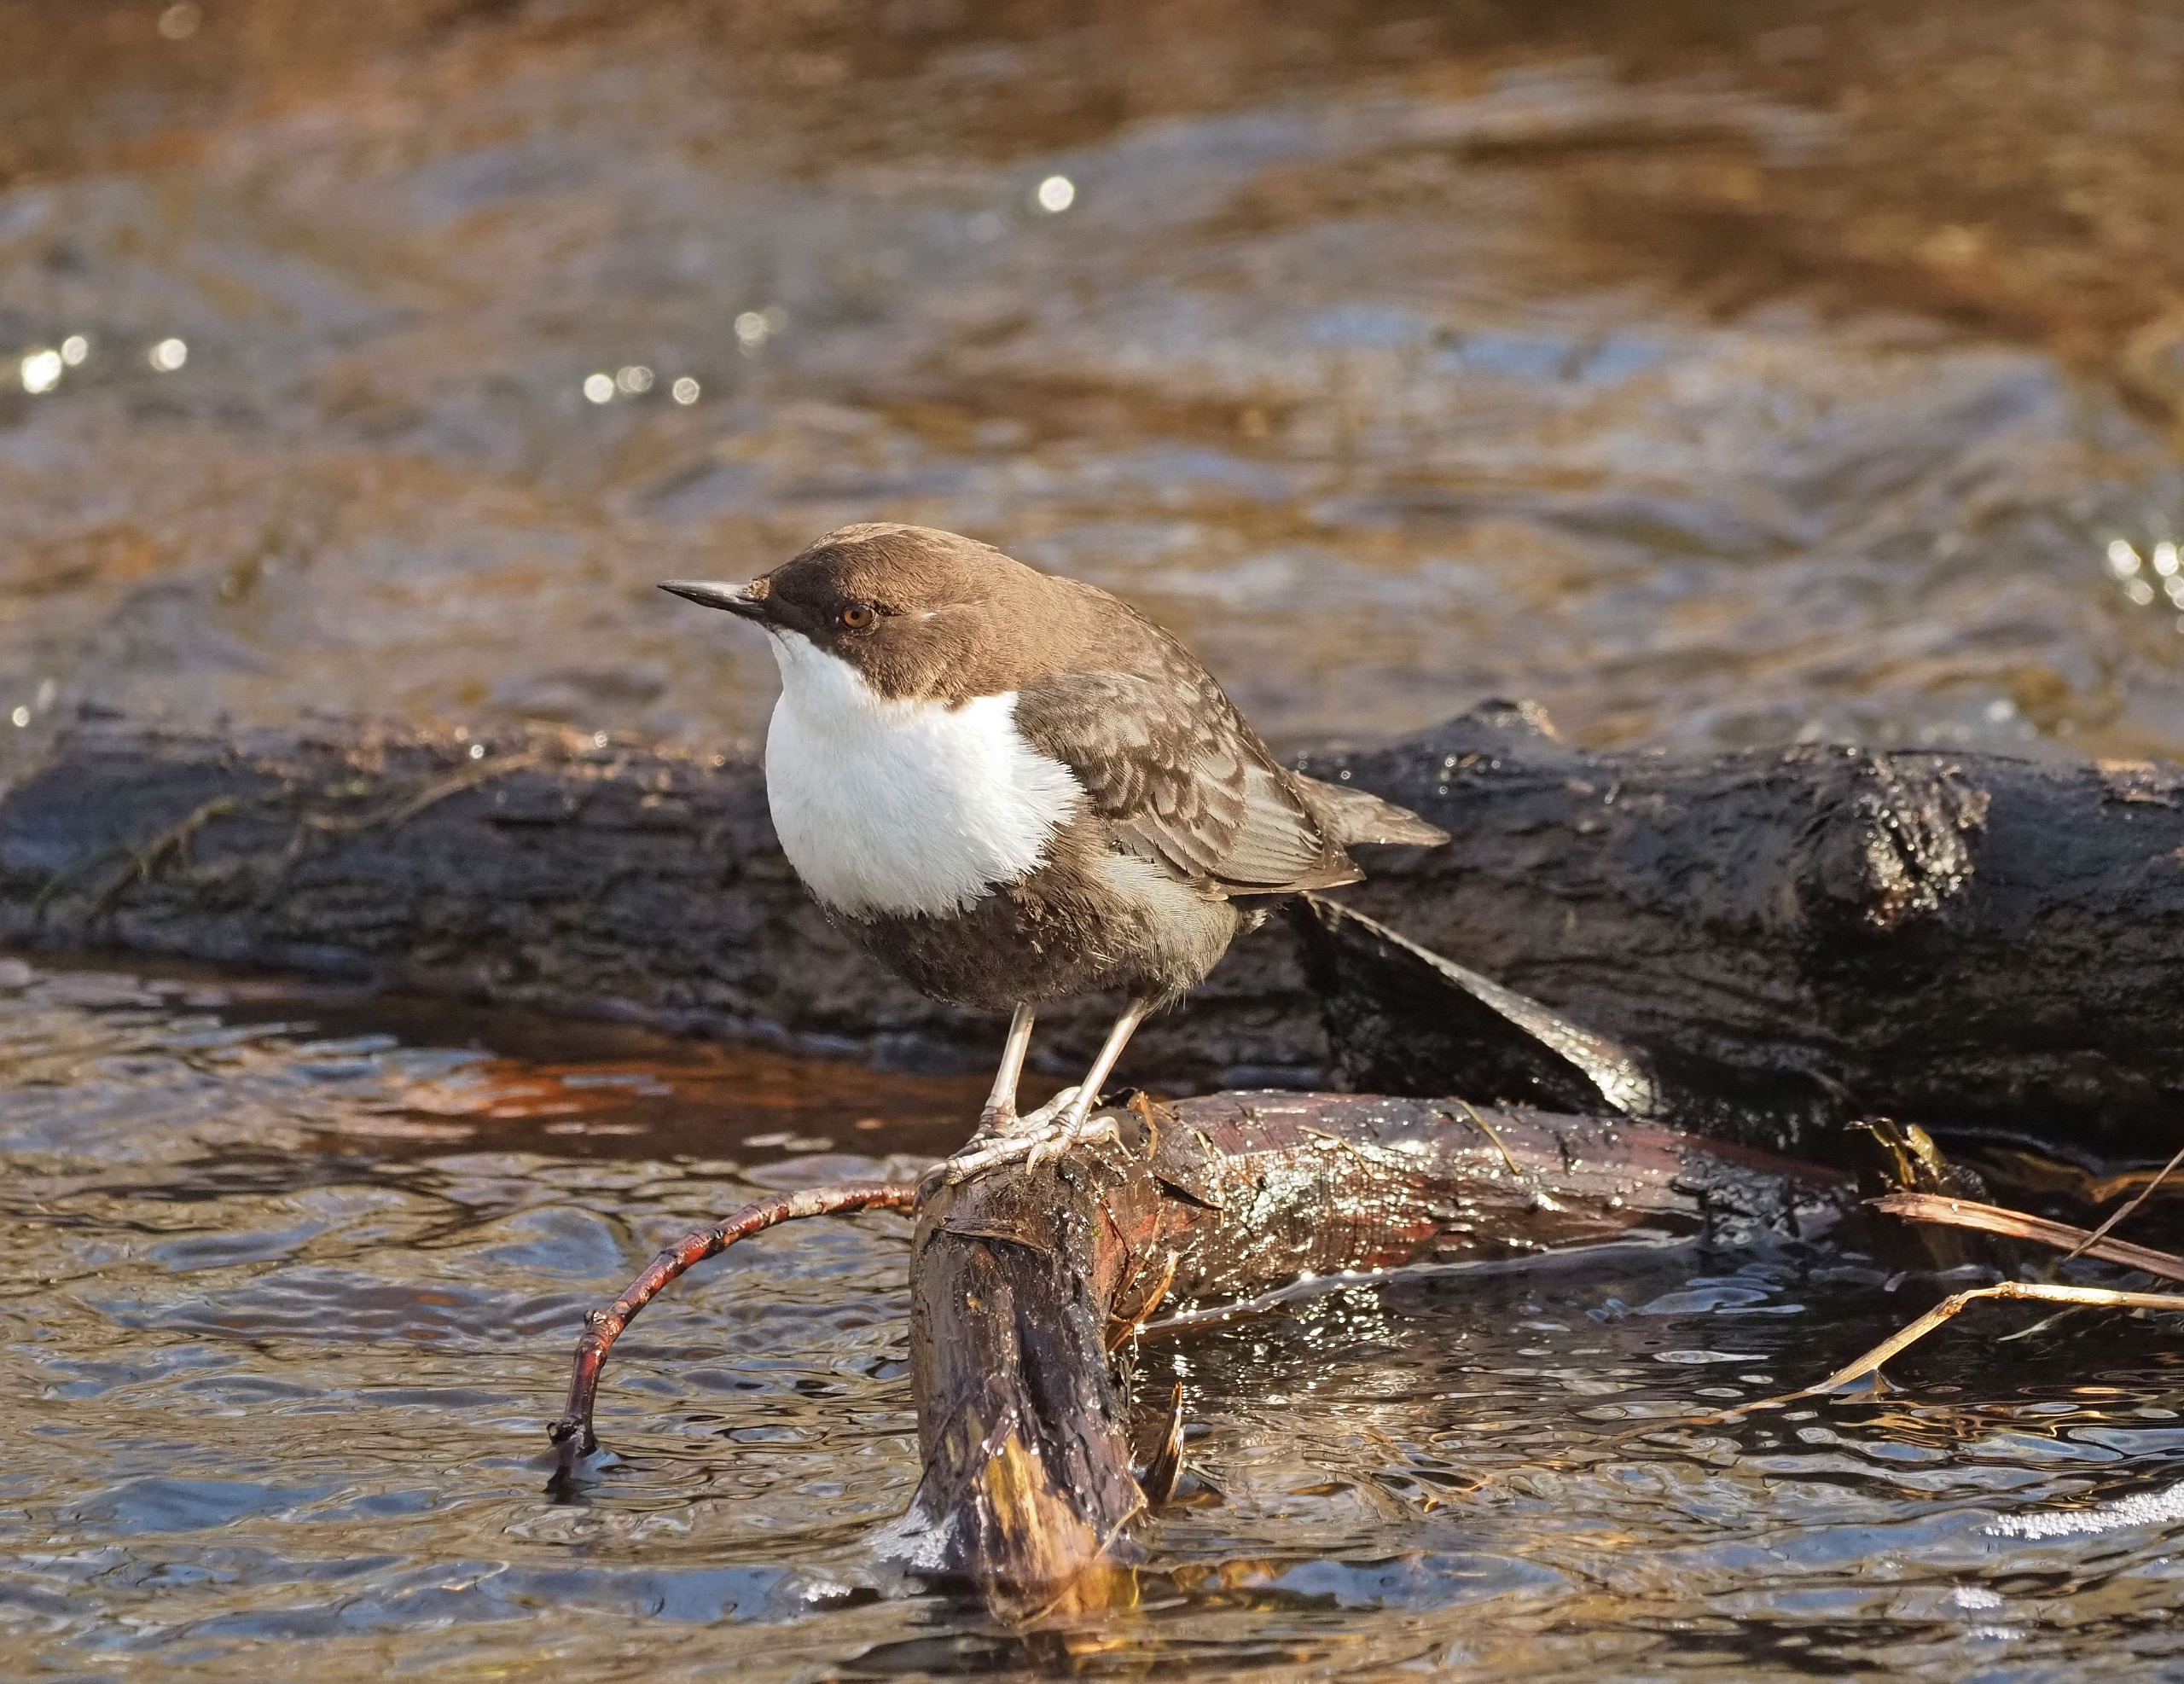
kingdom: Animalia
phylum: Chordata
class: Aves
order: Passeriformes
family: Cinclidae
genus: Cinclus
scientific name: Cinclus cinclus
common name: Vandstær
